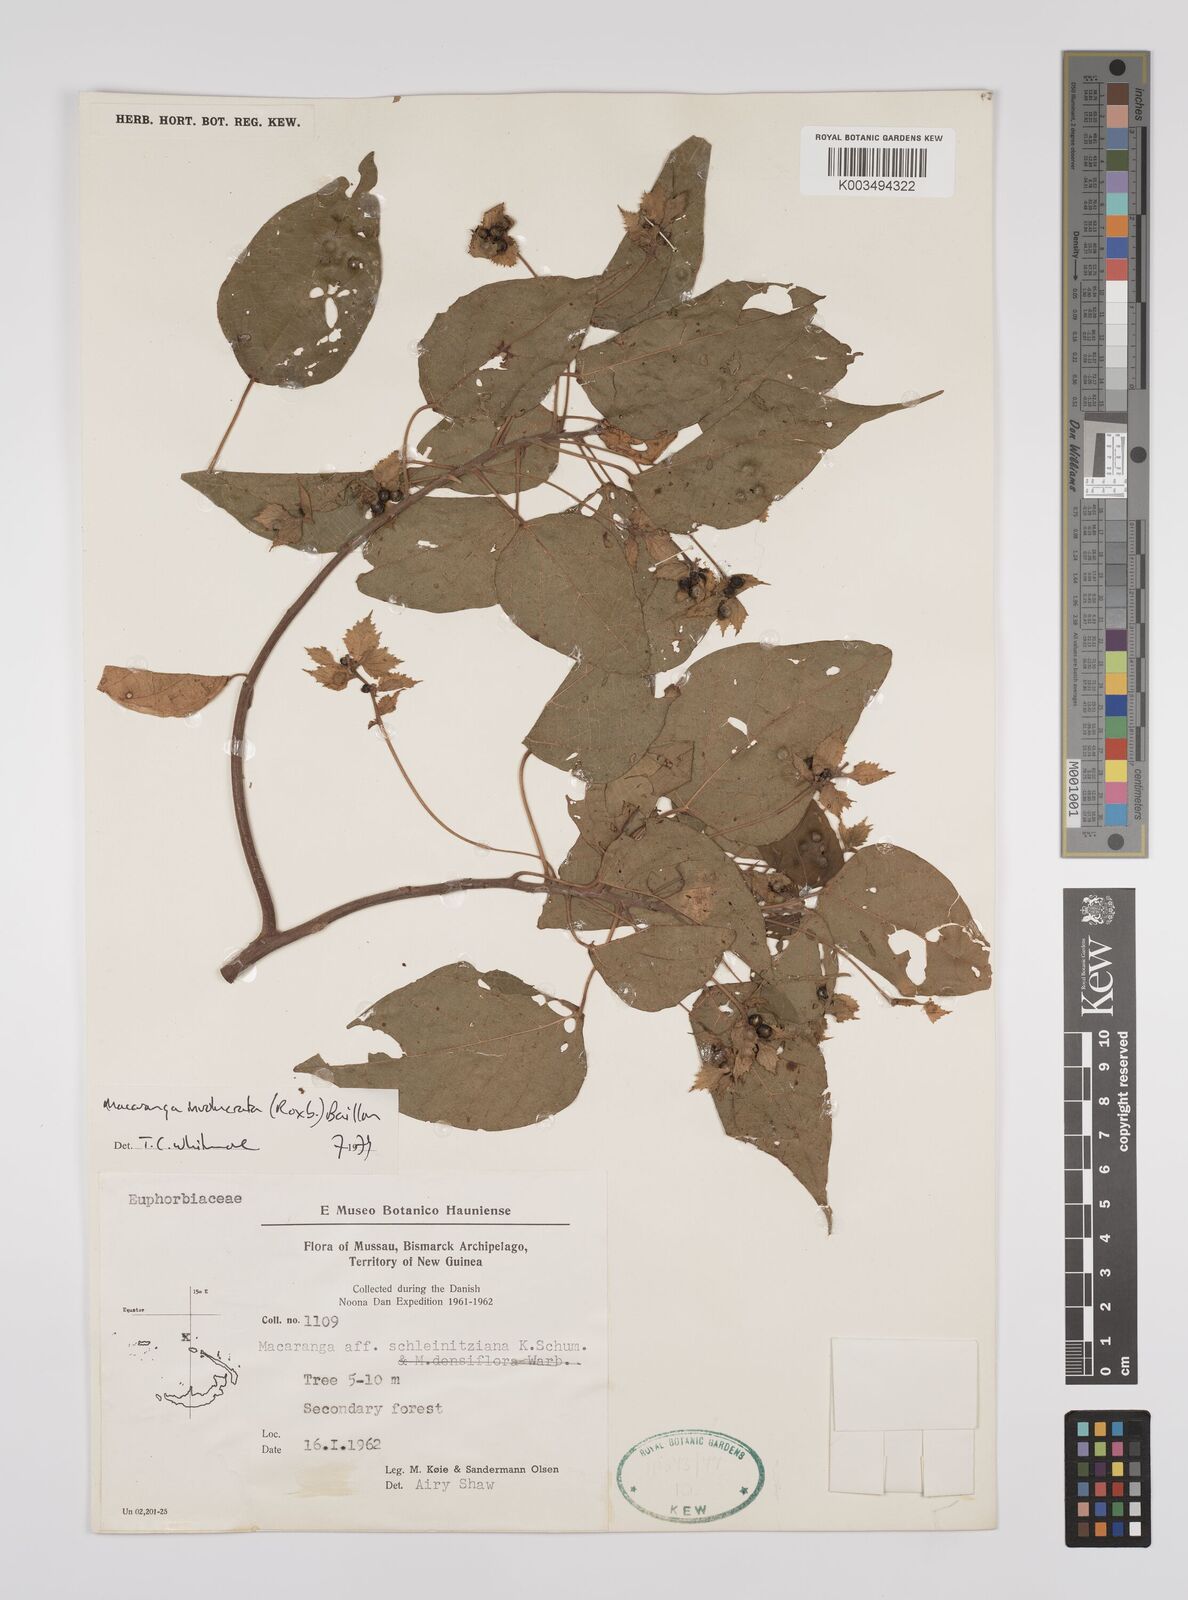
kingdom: Plantae
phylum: Tracheophyta
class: Magnoliopsida
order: Malpighiales
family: Euphorbiaceae
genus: Macaranga
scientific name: Macaranga involucrata
